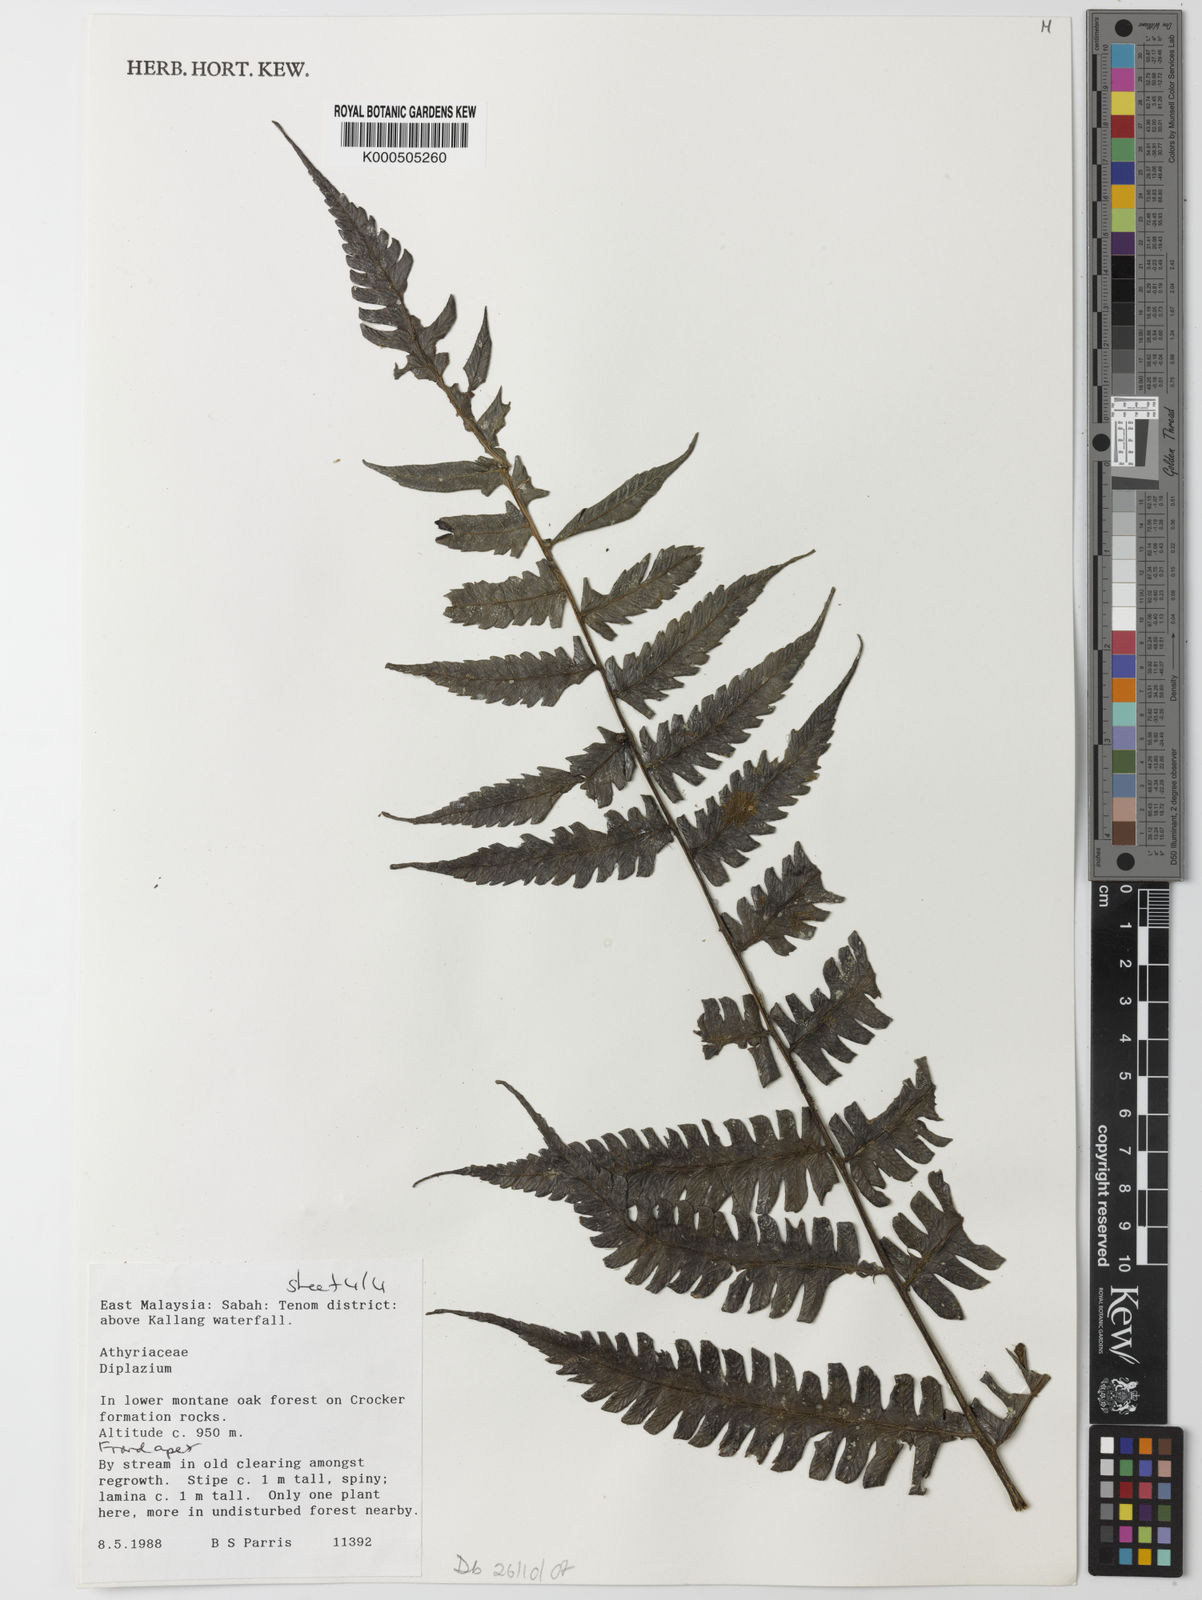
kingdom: Plantae
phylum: Tracheophyta
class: Polypodiopsida
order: Polypodiales
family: Athyriaceae
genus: Diplazium
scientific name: Diplazium
